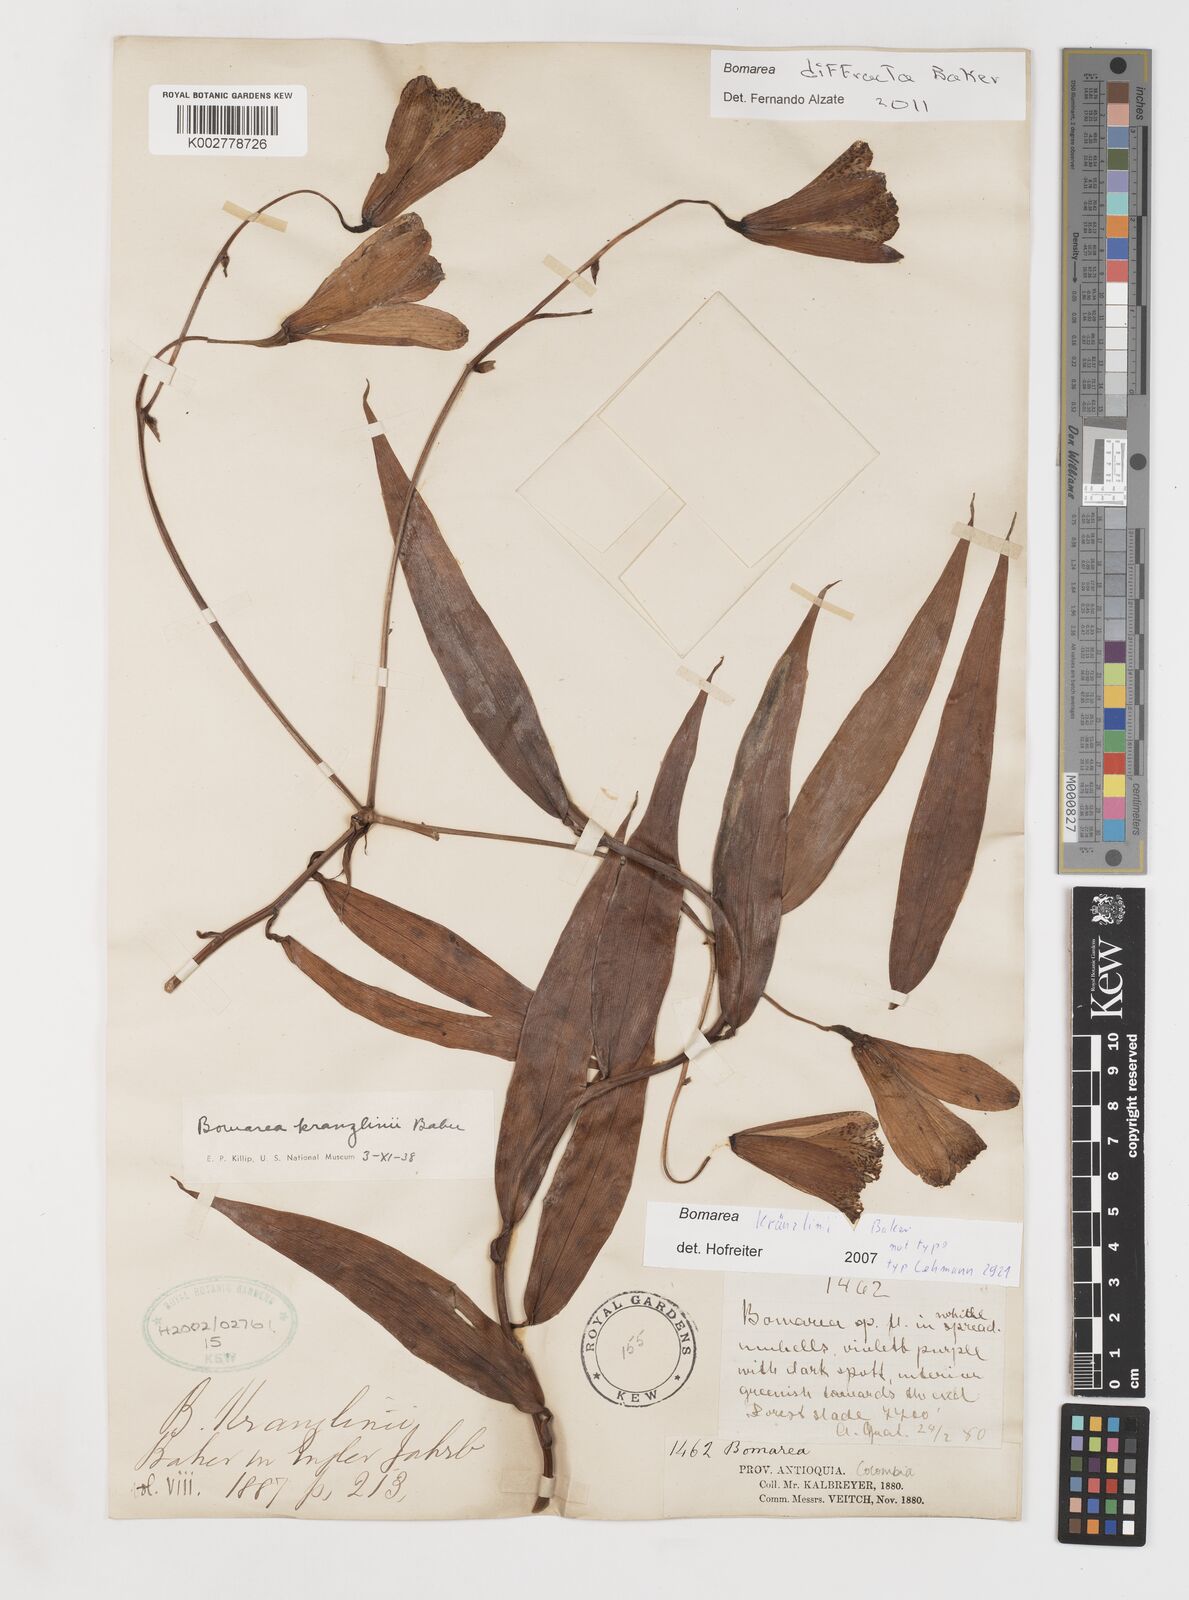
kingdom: Plantae
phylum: Tracheophyta
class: Liliopsida
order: Liliales
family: Alstroemeriaceae
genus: Bomarea
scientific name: Bomarea kraenzlinii
